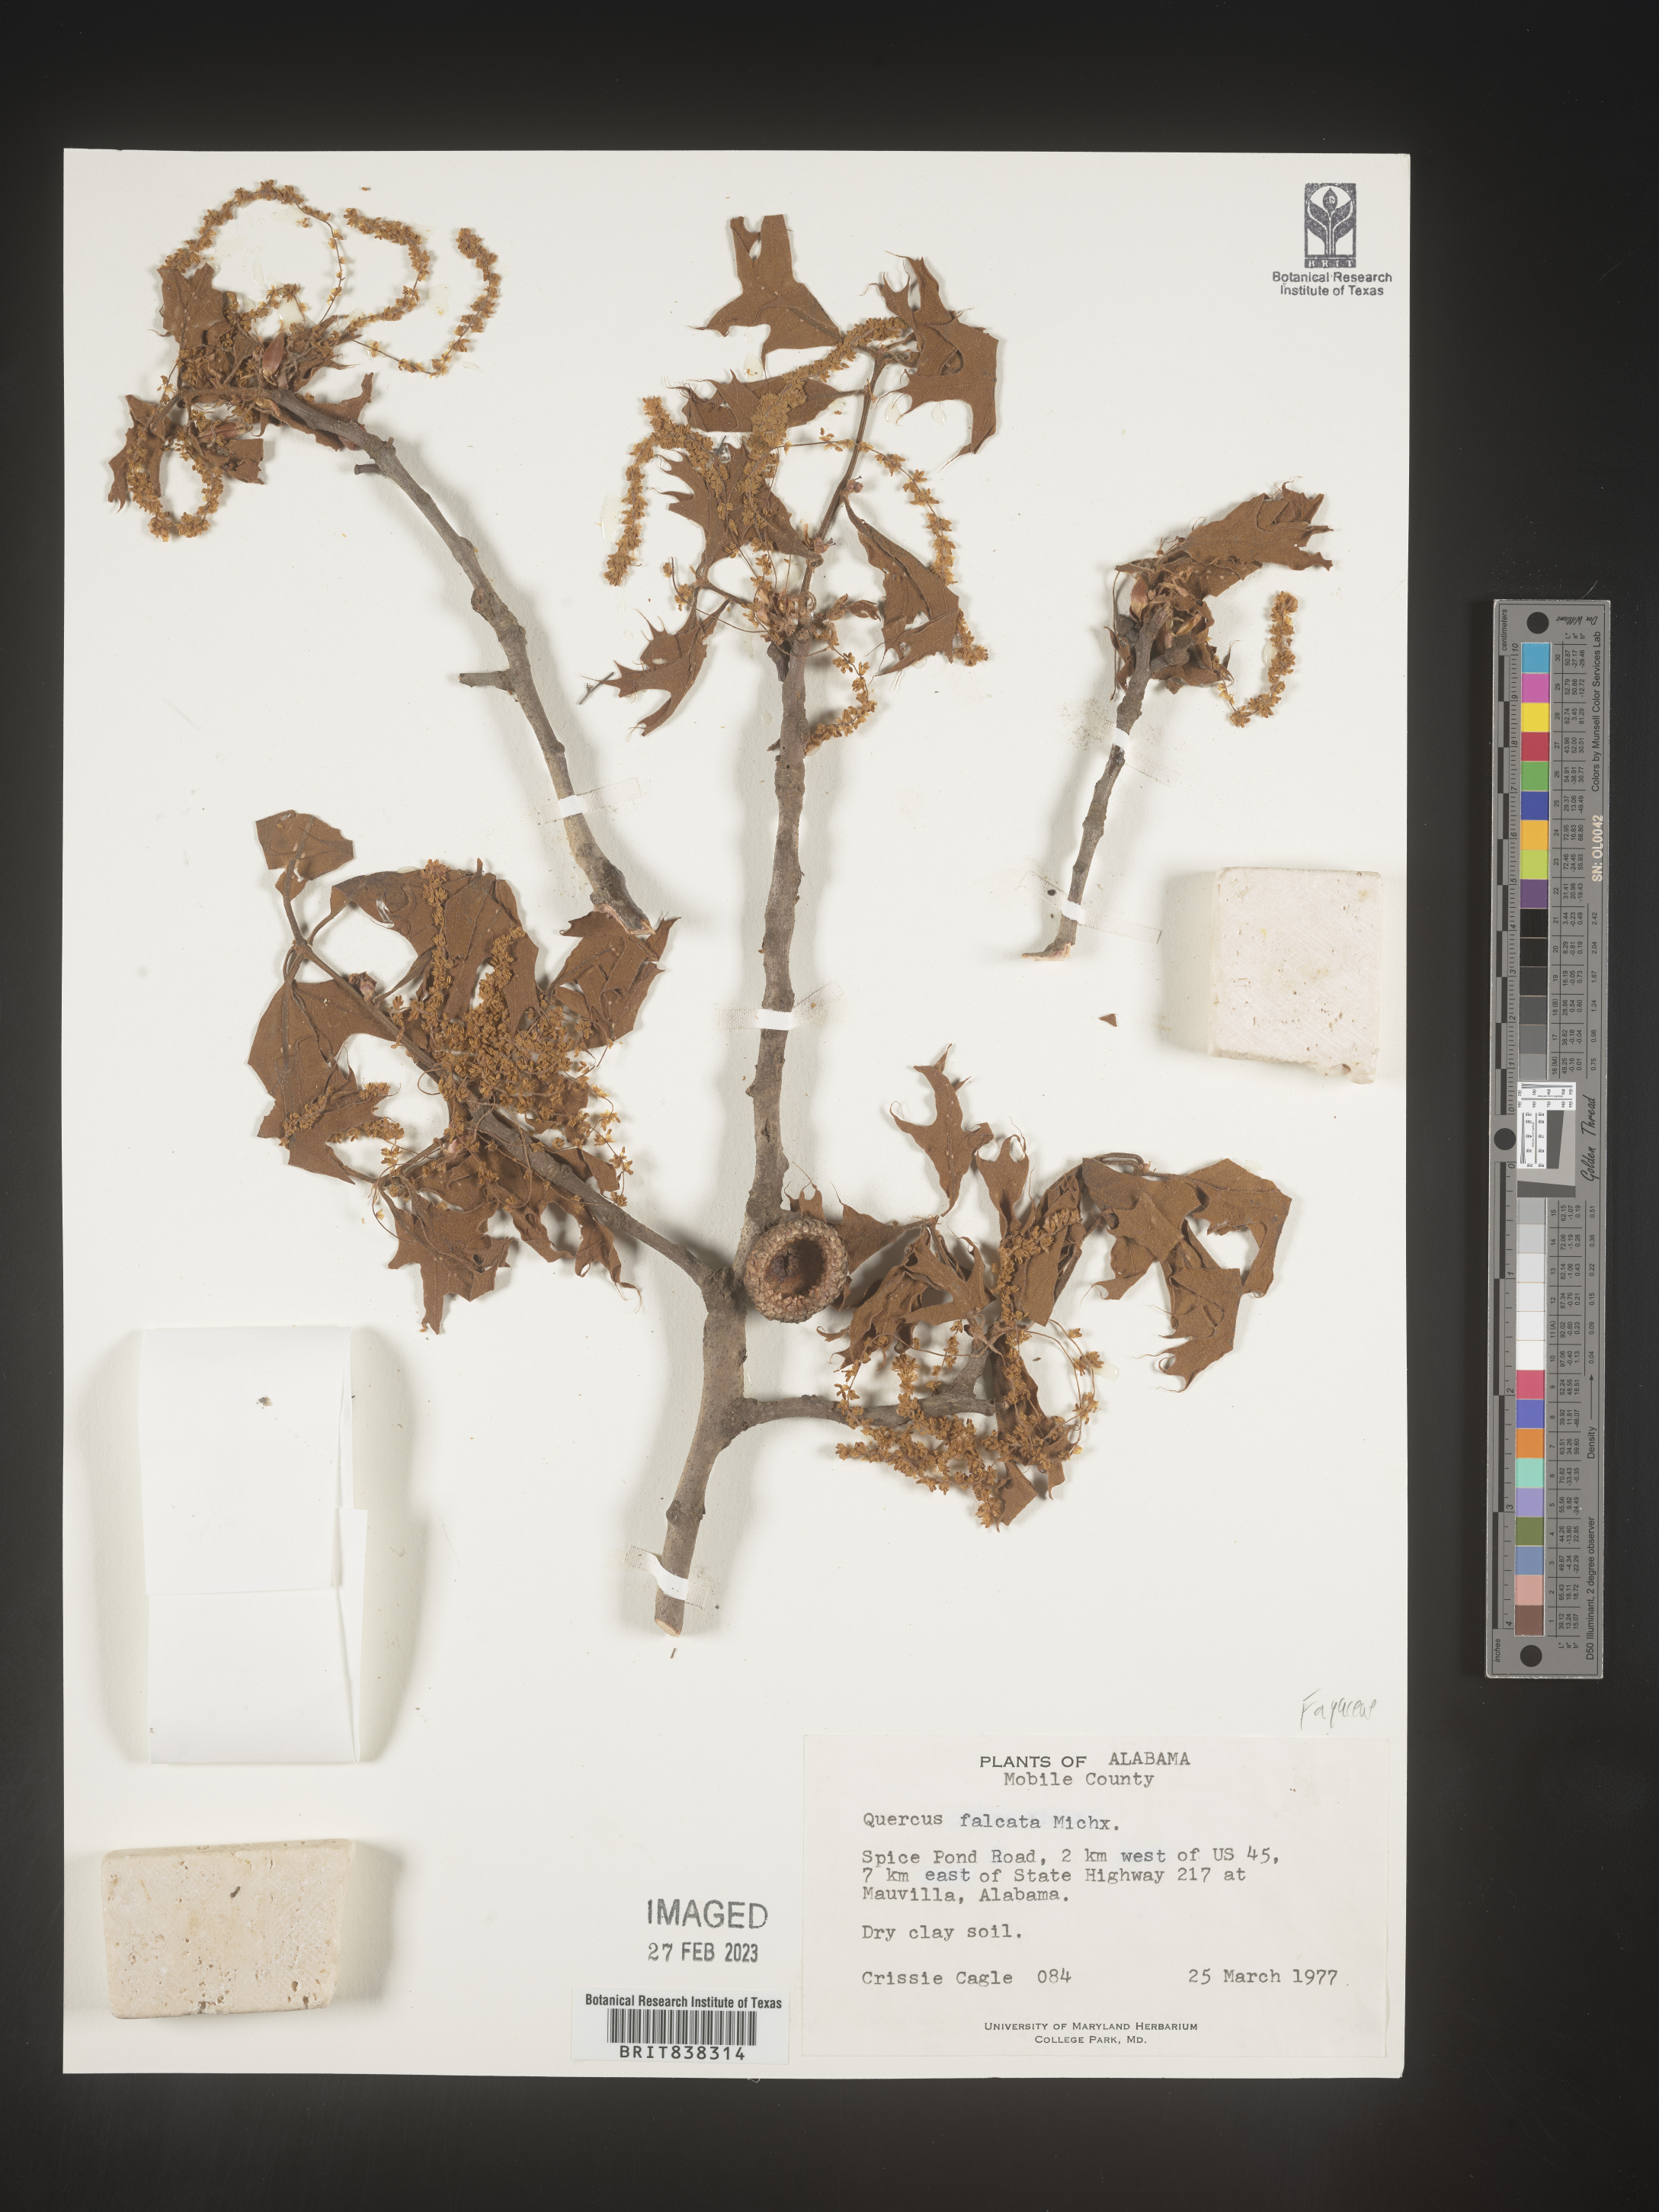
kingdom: Plantae
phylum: Tracheophyta
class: Magnoliopsida
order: Fagales
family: Fagaceae
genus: Quercus
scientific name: Quercus falcata
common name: Southern red oak
